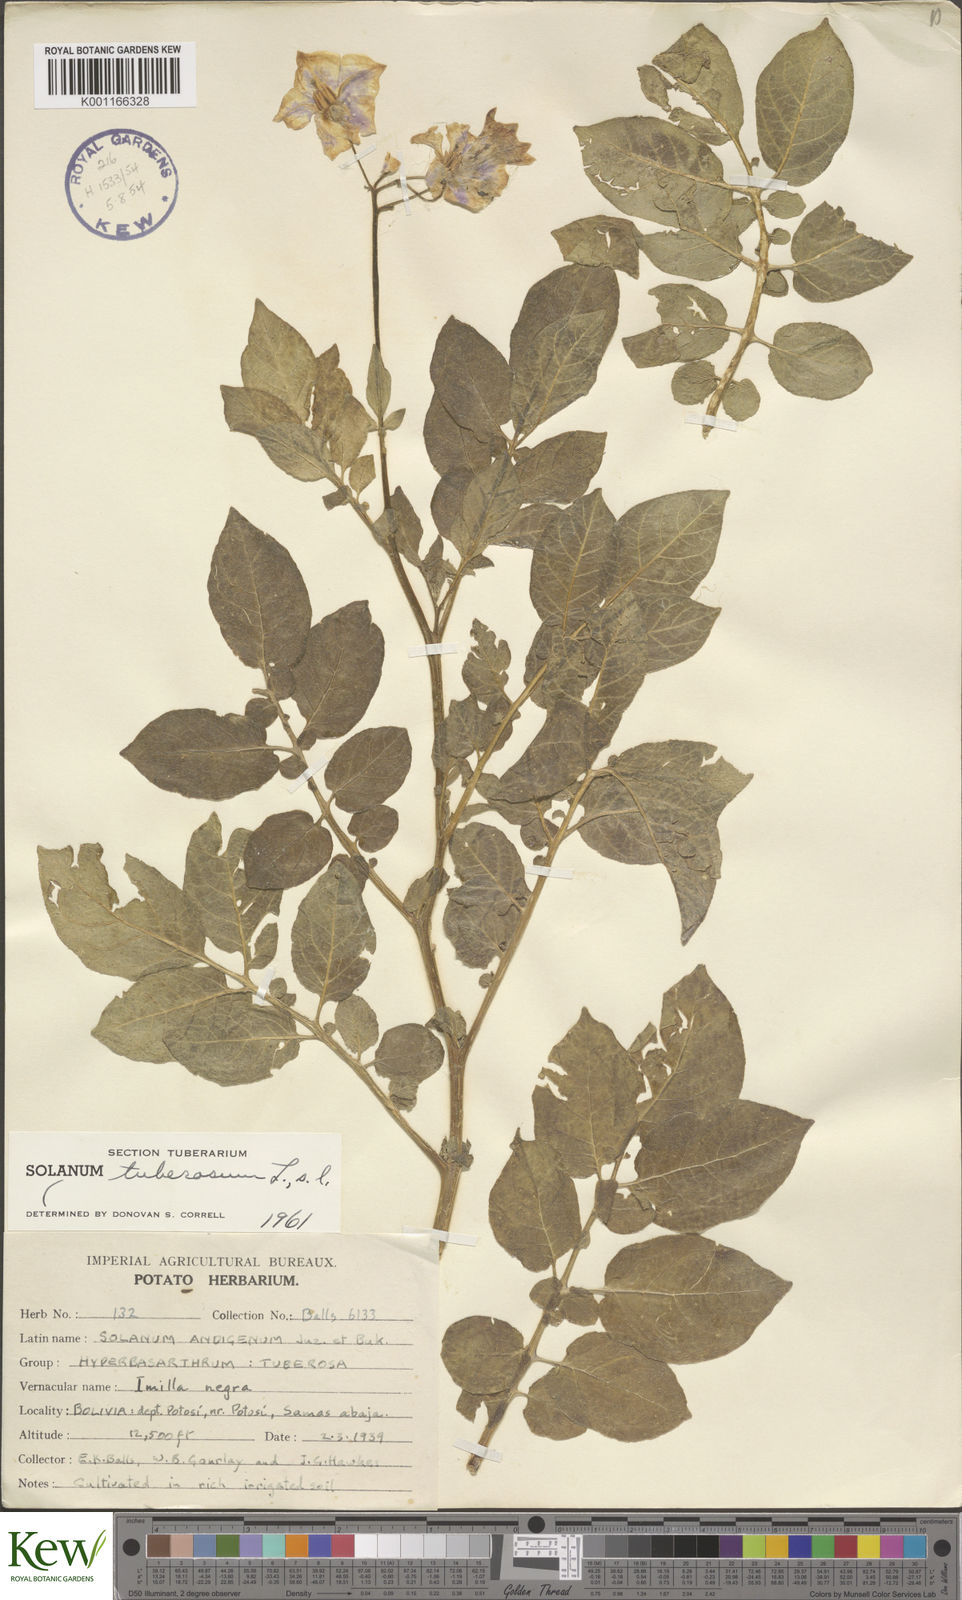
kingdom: Plantae
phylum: Tracheophyta
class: Magnoliopsida
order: Solanales
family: Solanaceae
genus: Solanum
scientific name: Solanum tuberosum
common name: Potato
